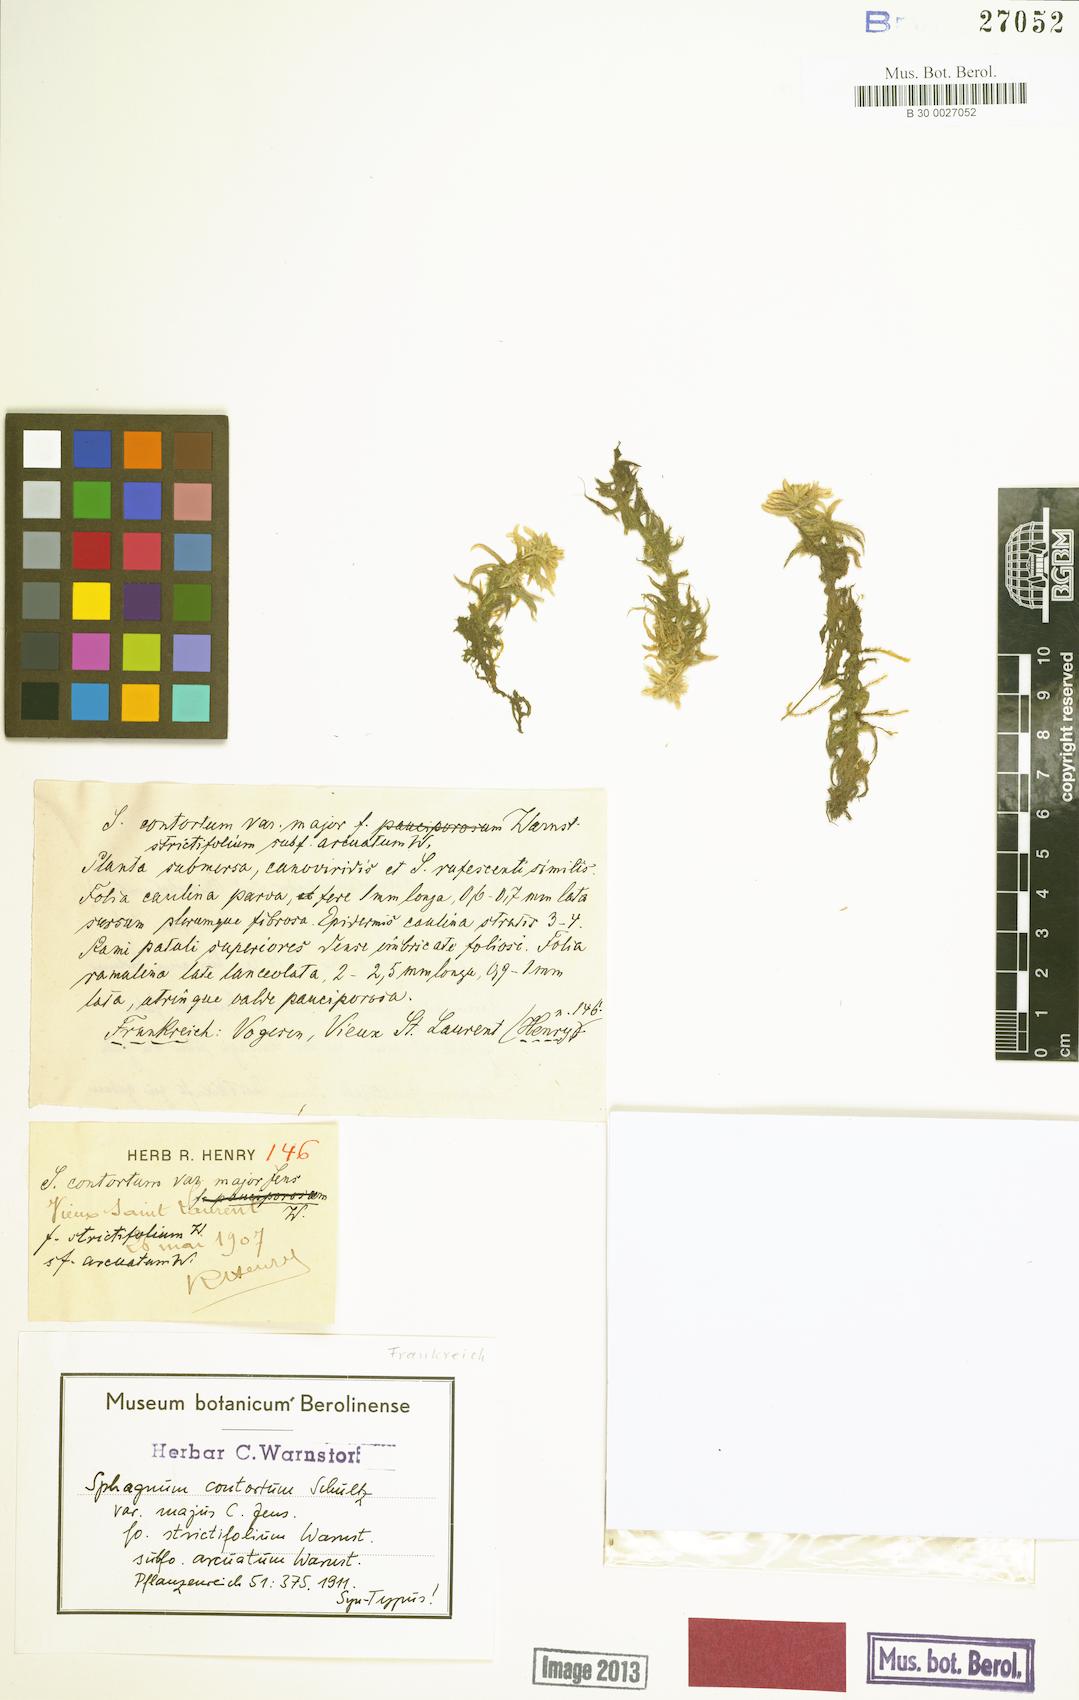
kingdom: Plantae
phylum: Bryophyta
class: Sphagnopsida
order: Sphagnales
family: Sphagnaceae
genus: Sphagnum
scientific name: Sphagnum contortum
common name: Twisted peat moss
